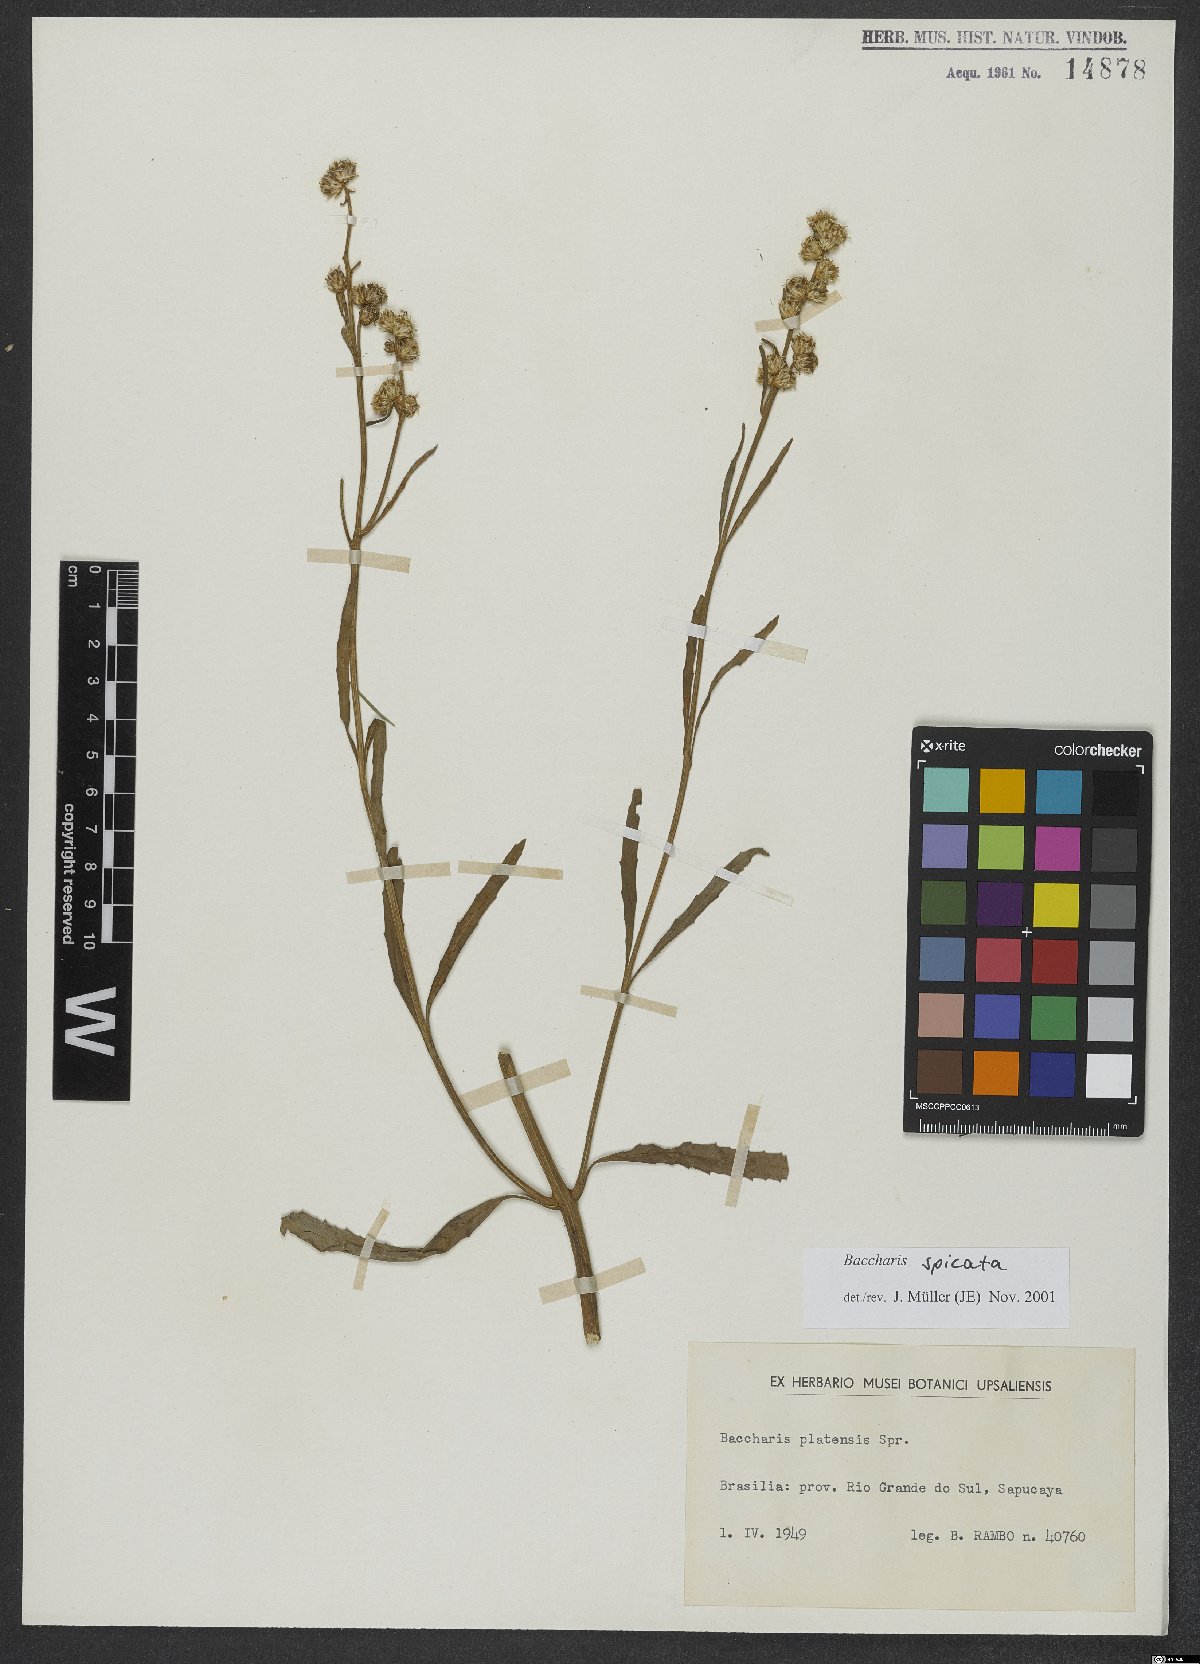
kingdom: Plantae
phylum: Tracheophyta
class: Magnoliopsida
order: Asterales
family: Asteraceae
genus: Baccharis
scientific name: Baccharis spicata
